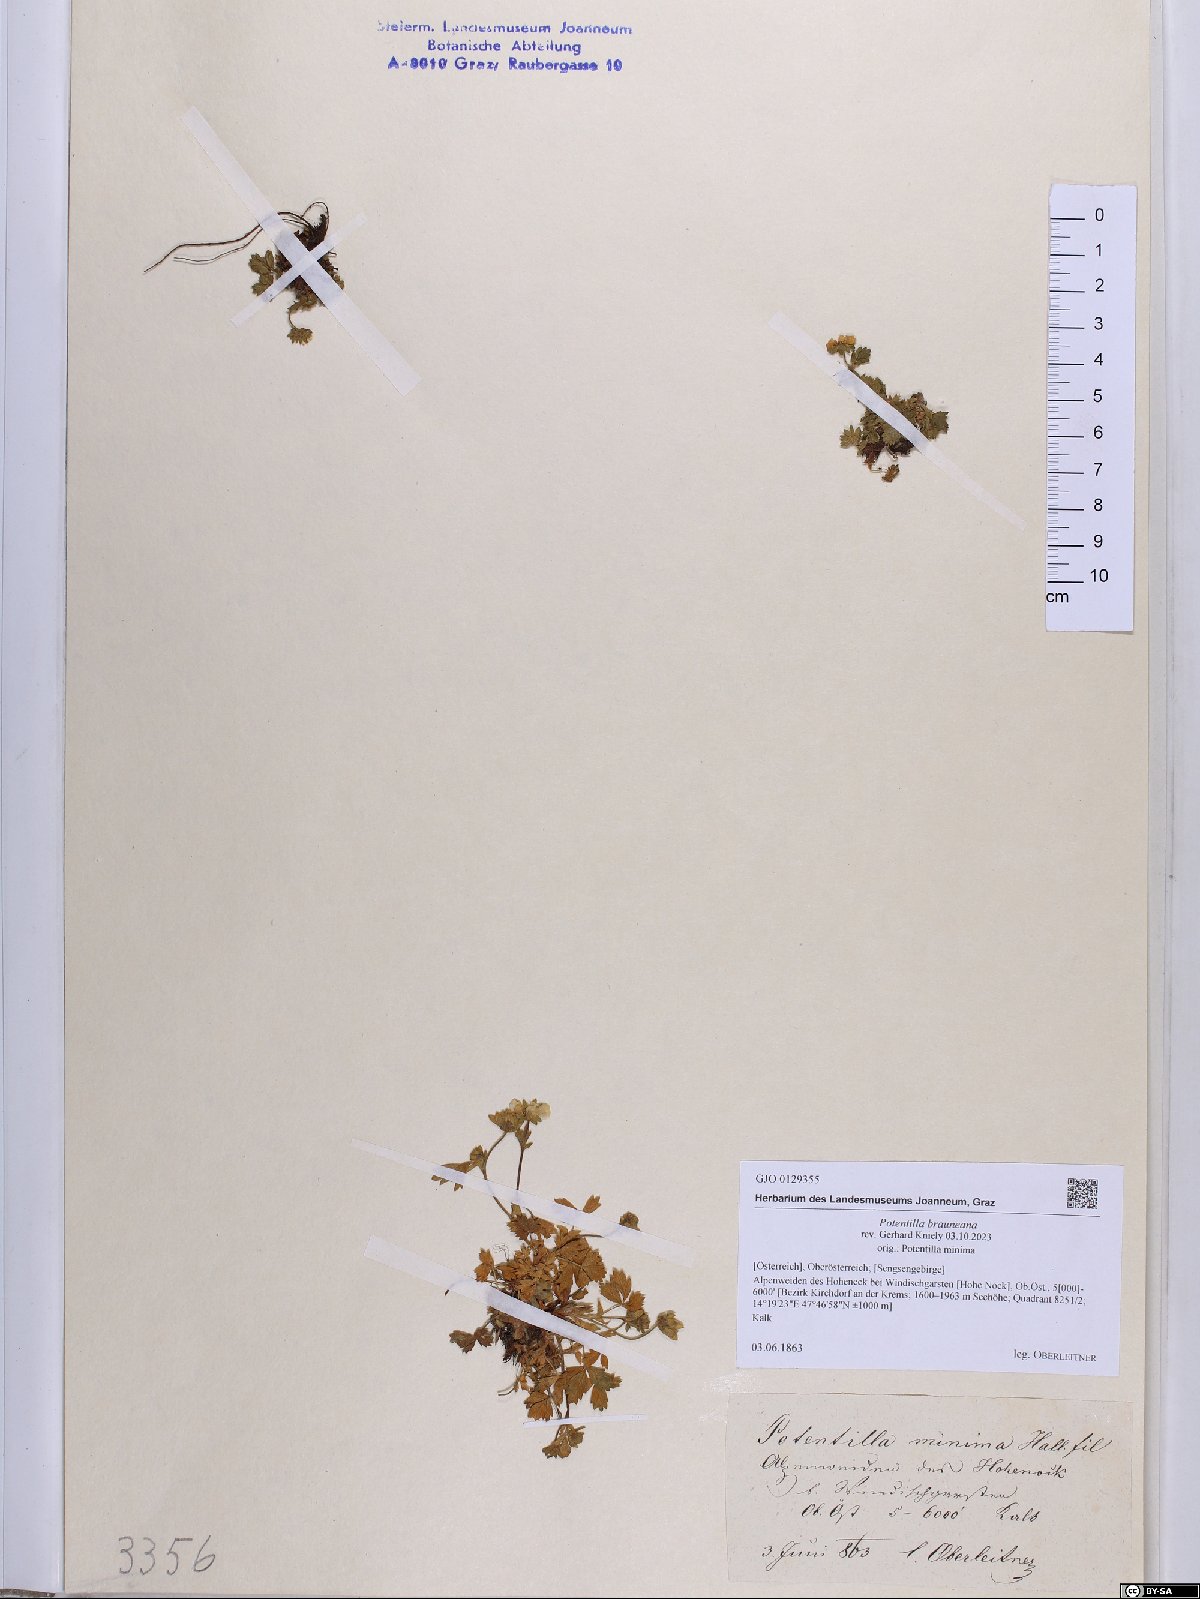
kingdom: Plantae
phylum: Tracheophyta
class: Magnoliopsida
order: Rosales
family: Rosaceae
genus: Potentilla
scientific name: Potentilla brauneana
